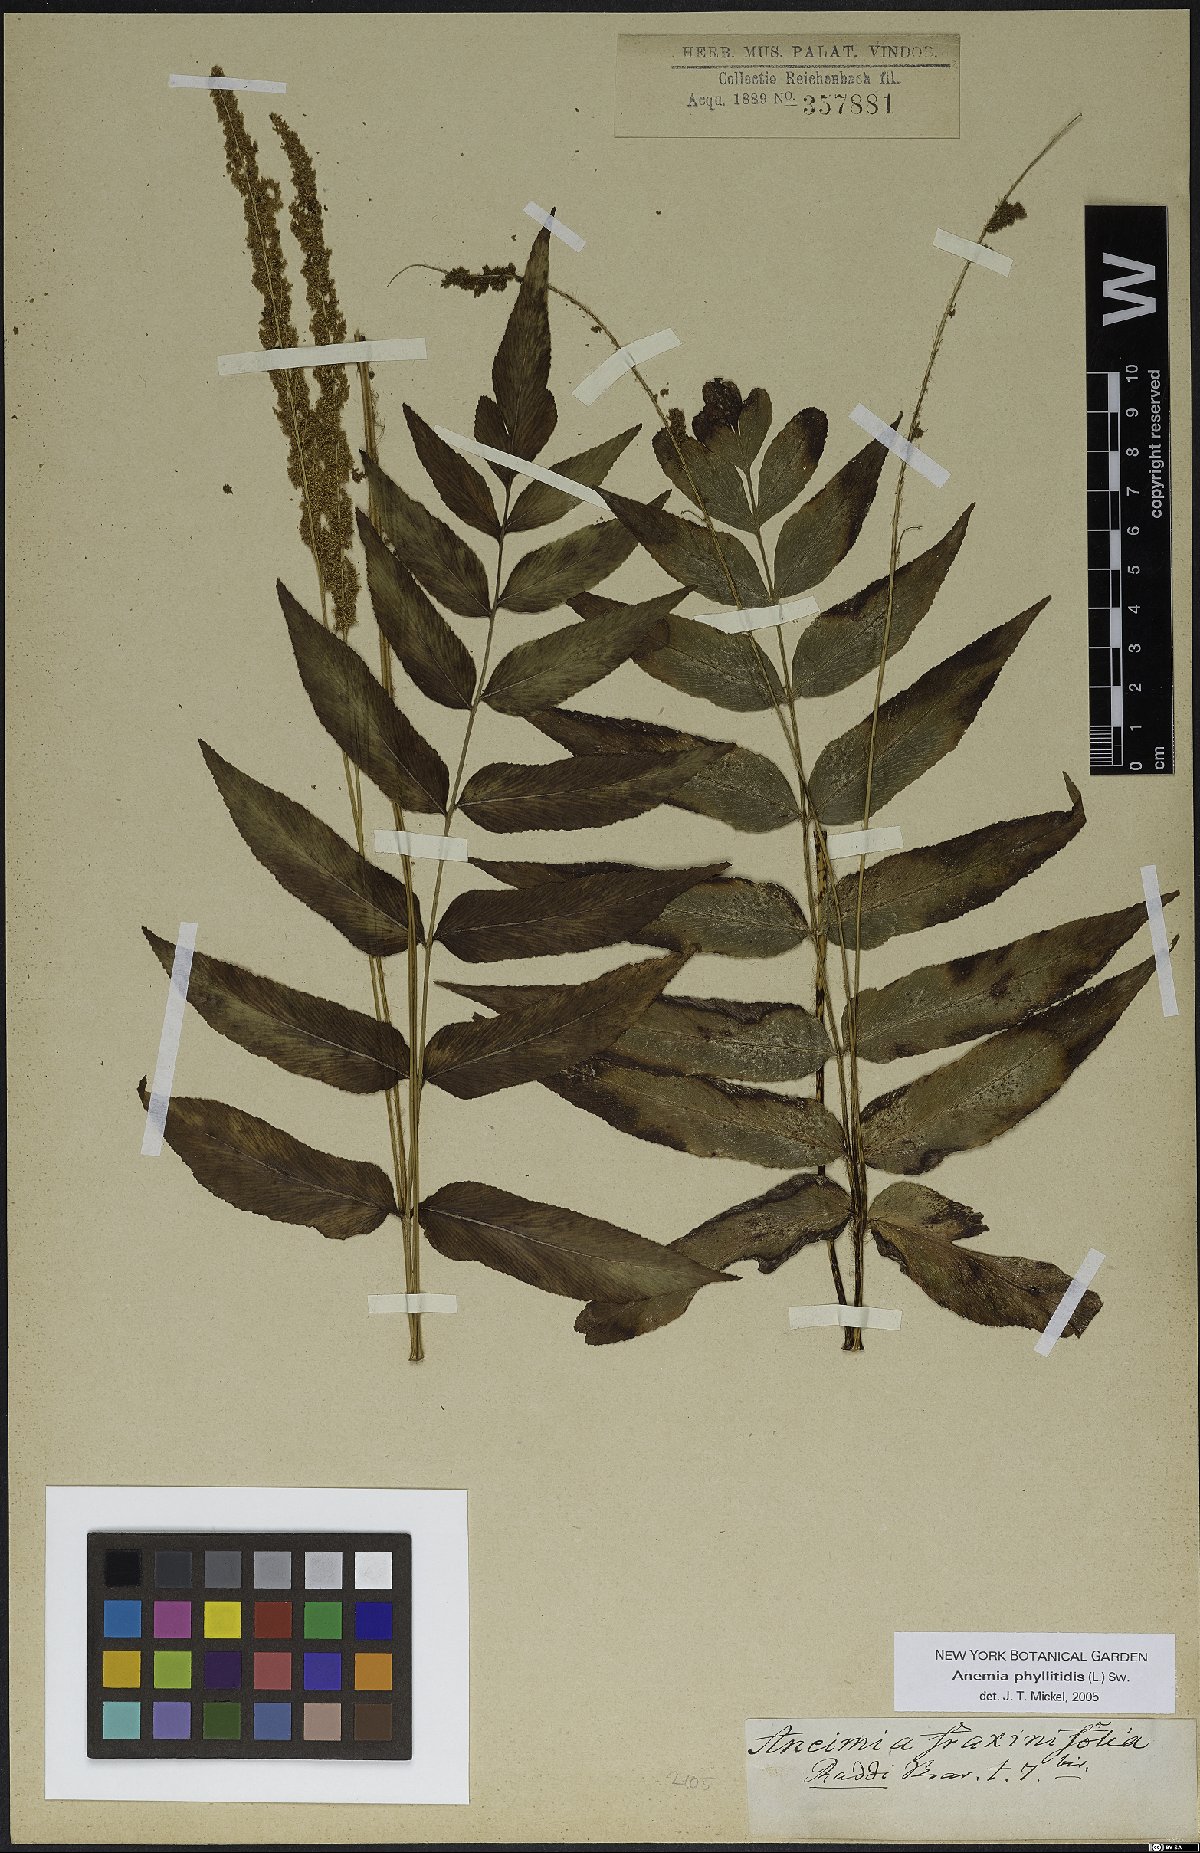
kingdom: Plantae
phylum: Tracheophyta
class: Polypodiopsida
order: Schizaeales
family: Anemiaceae
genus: Anemia
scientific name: Anemia phyllitidis
